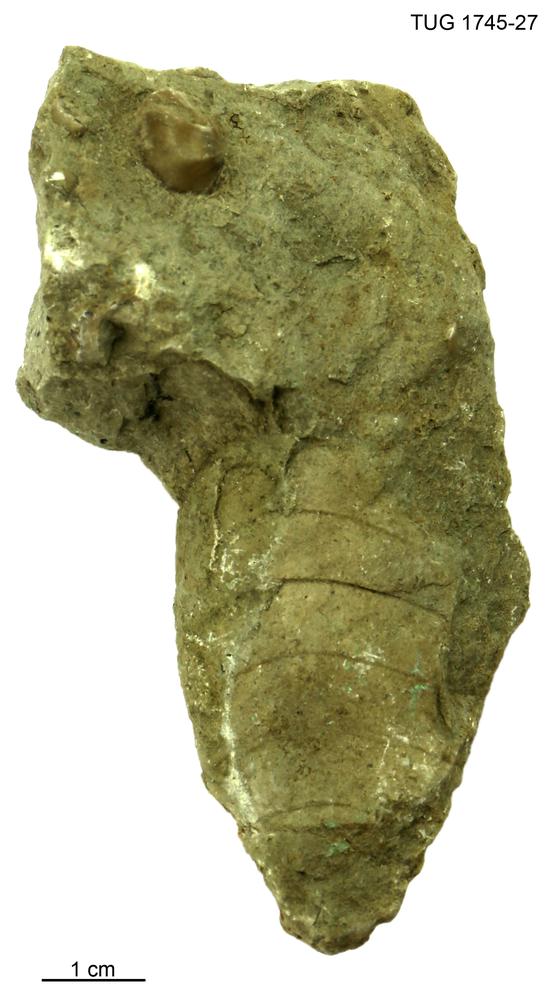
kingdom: Animalia
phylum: Mollusca
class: Cephalopoda
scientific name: Cephalopoda
